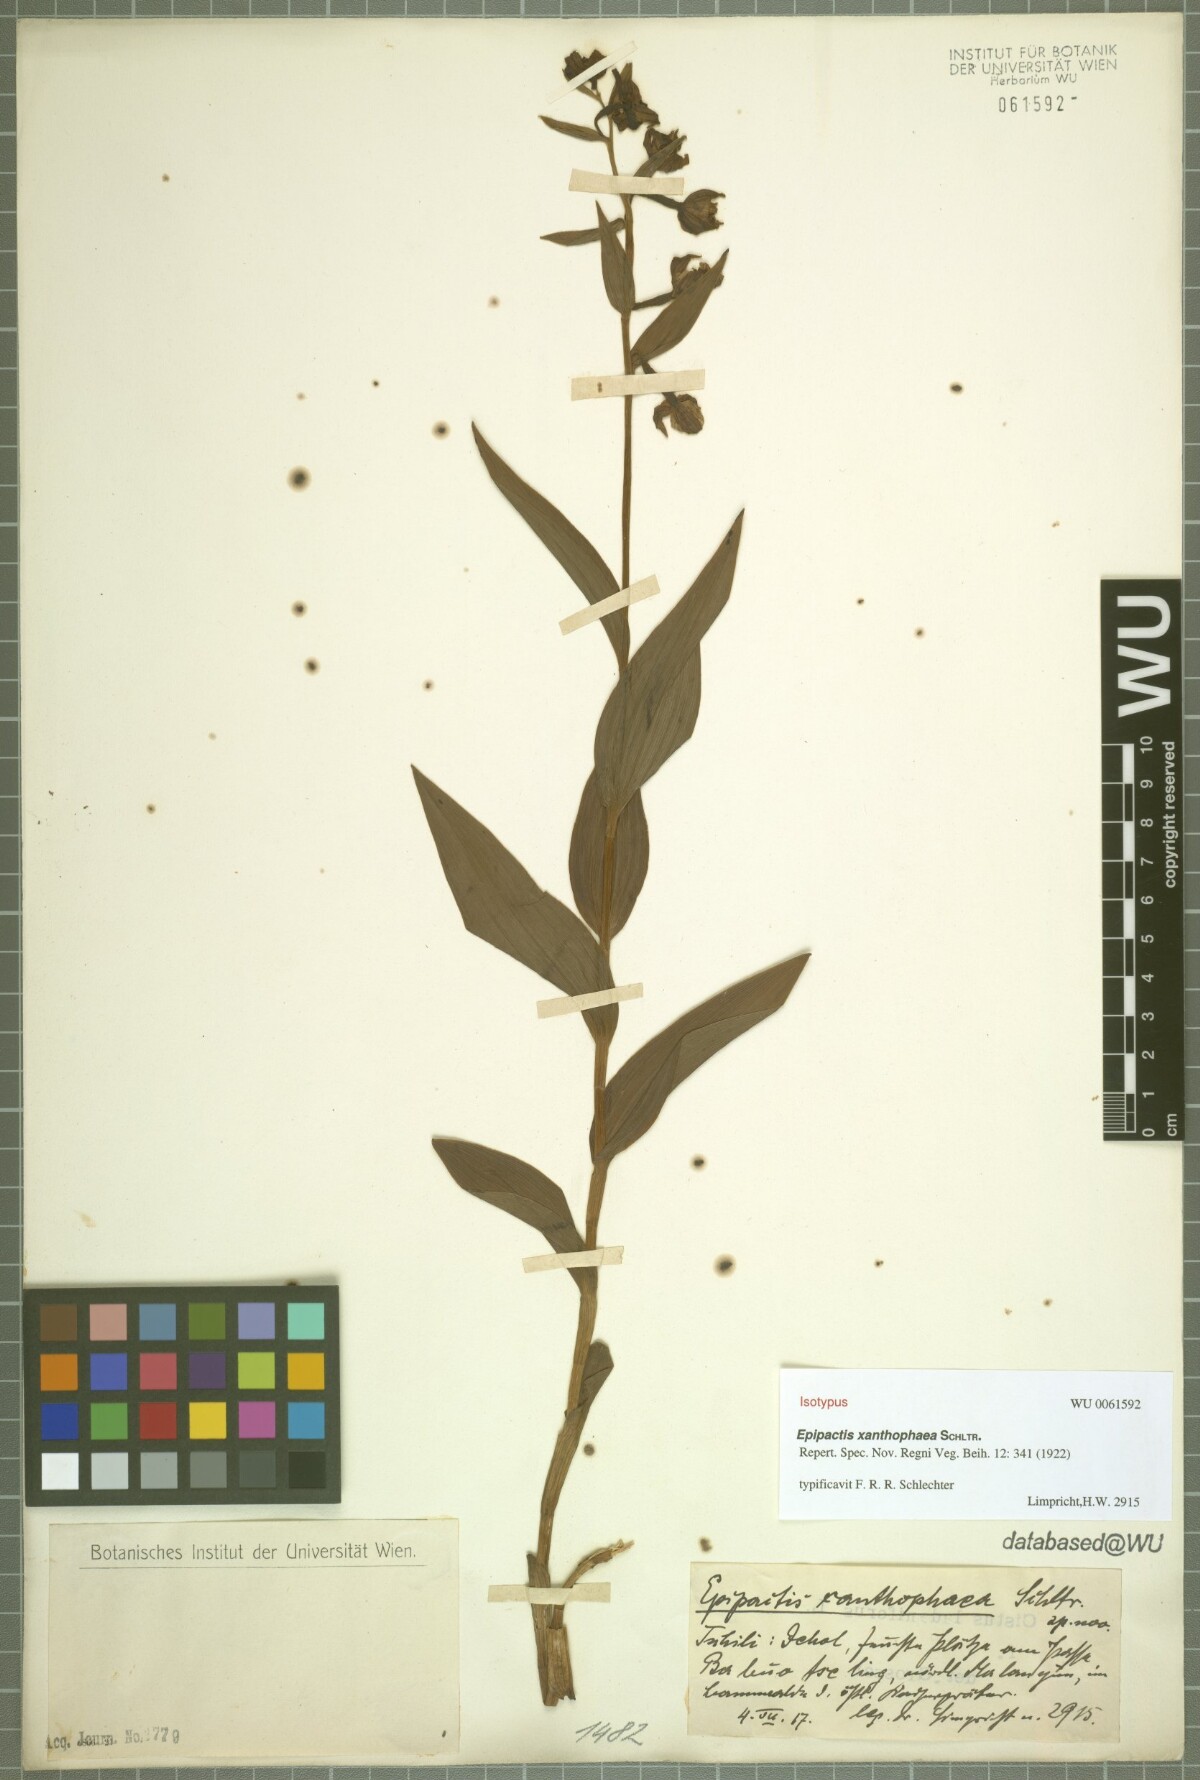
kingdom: Plantae
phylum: Tracheophyta
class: Liliopsida
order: Asparagales
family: Orchidaceae
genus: Epipactis
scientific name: Epipactis xanthophaea
